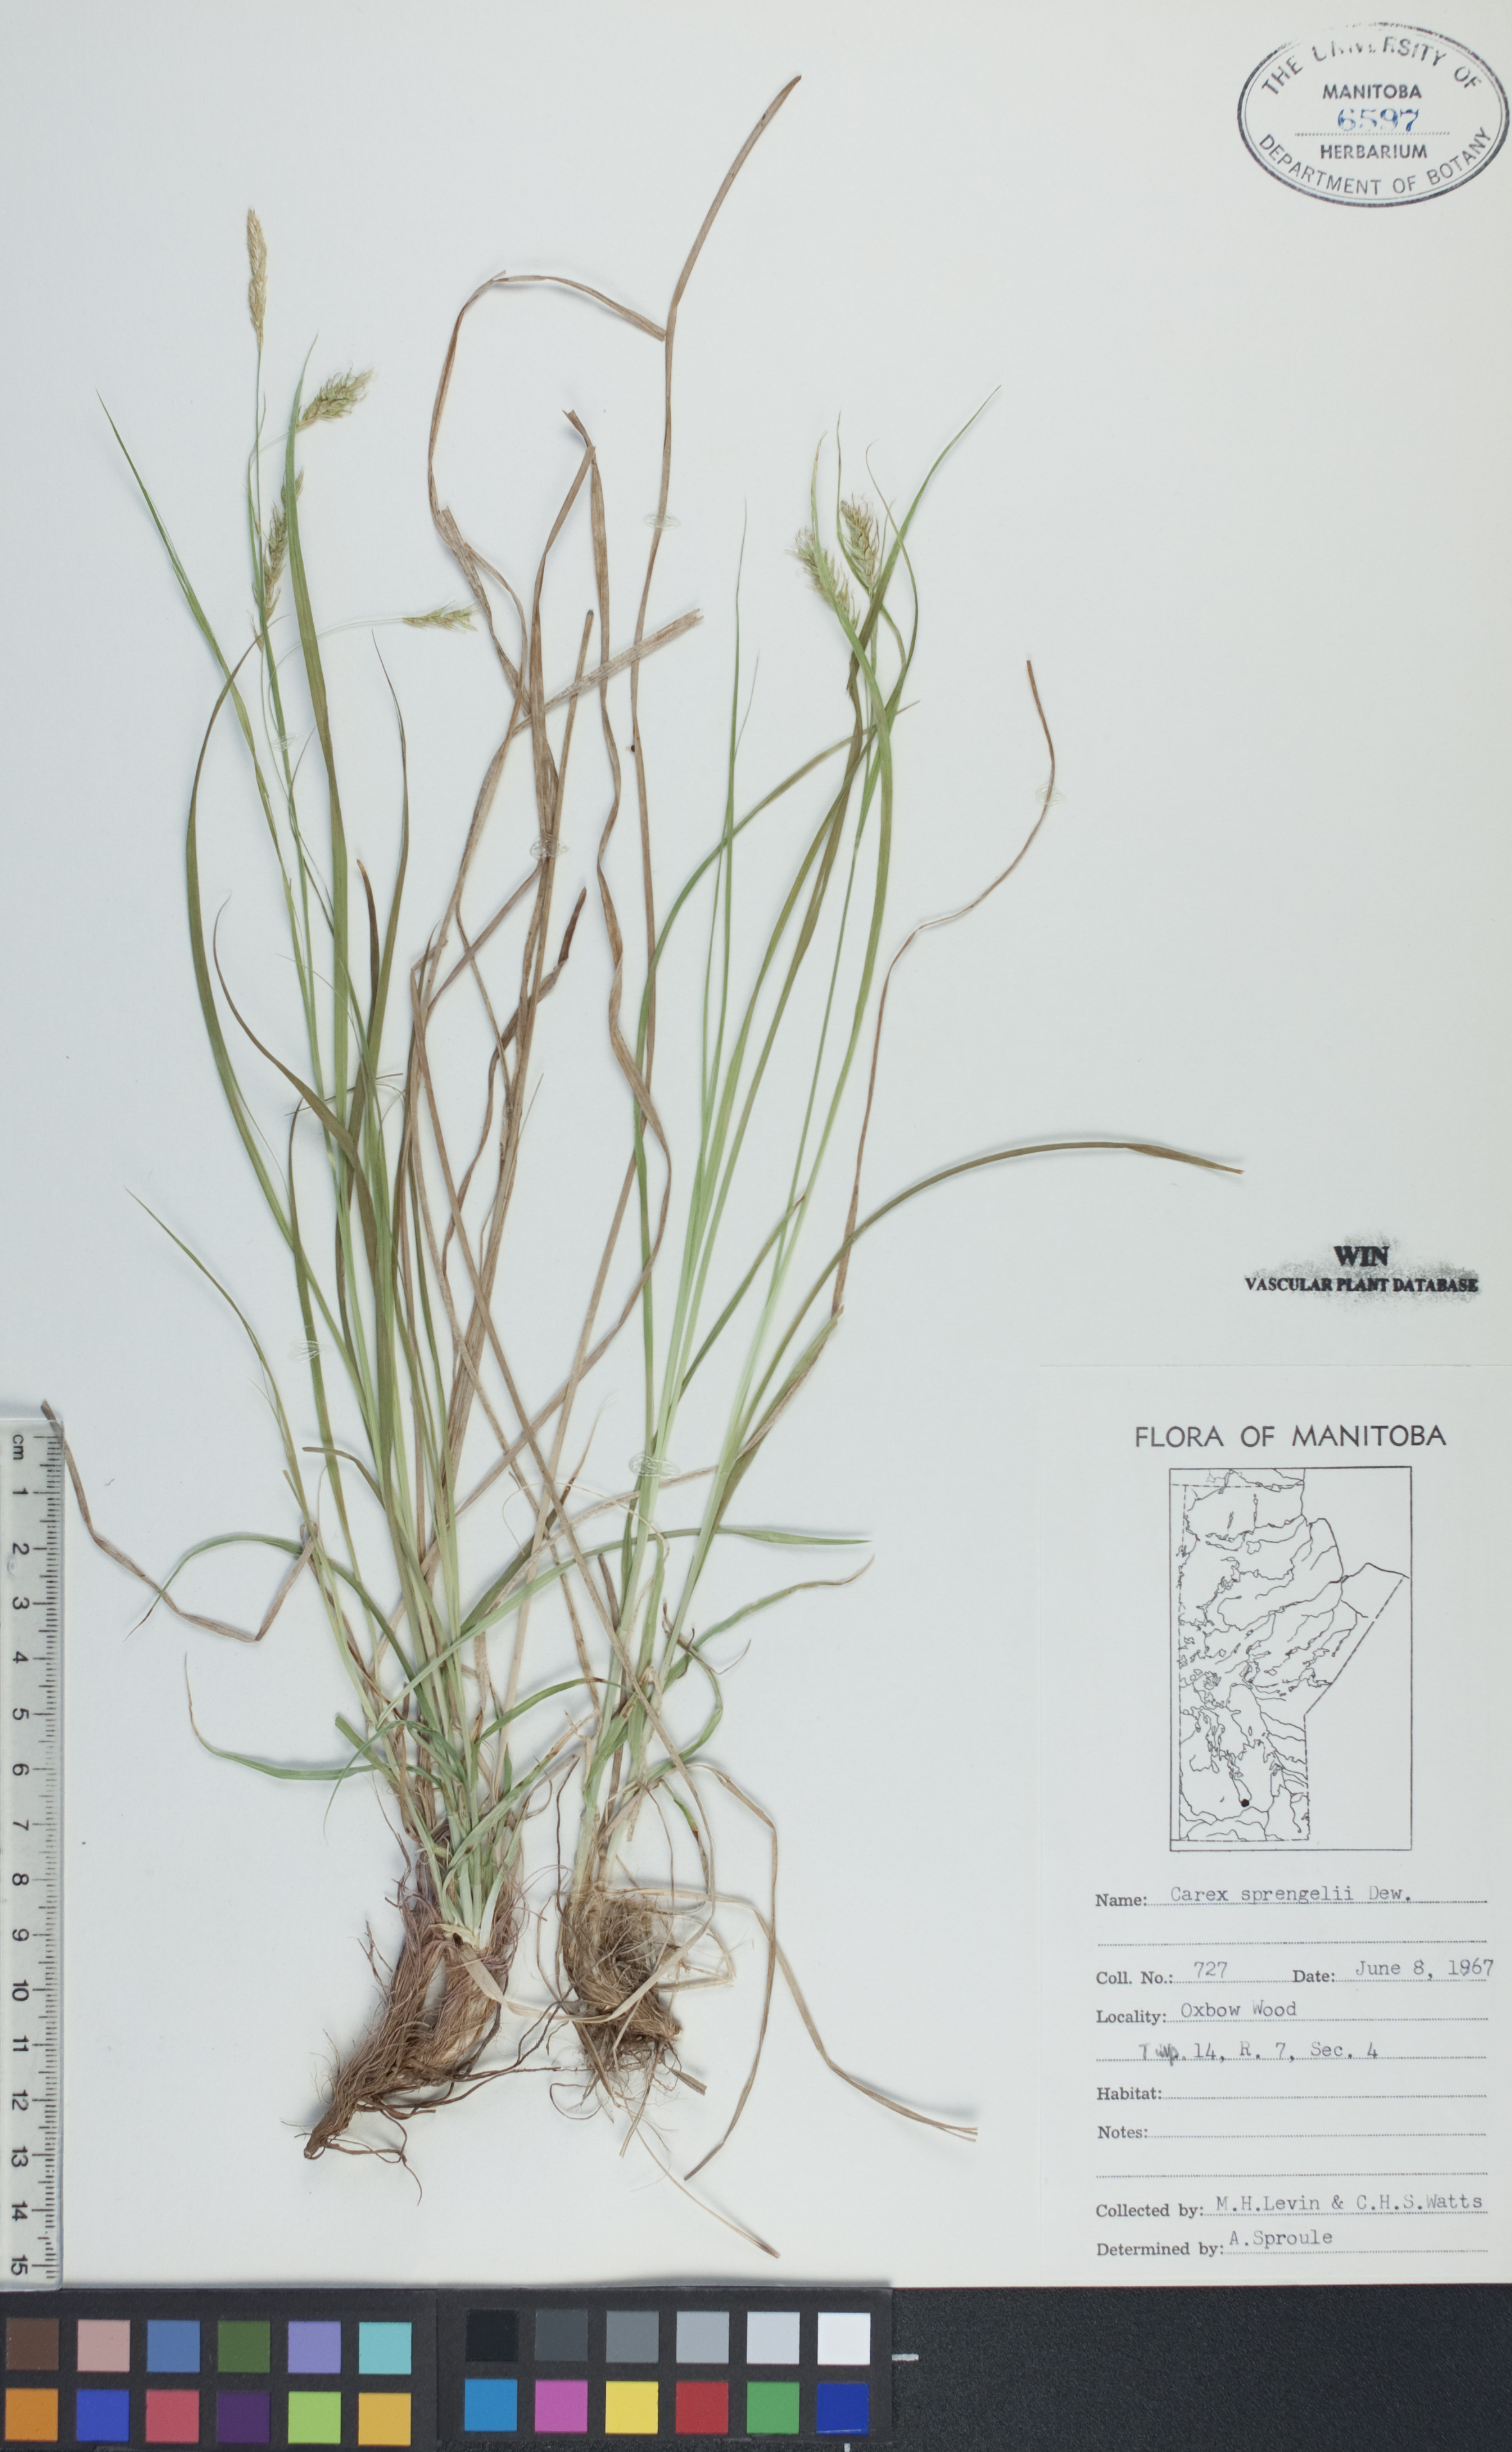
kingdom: Plantae
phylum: Tracheophyta
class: Liliopsida
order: Poales
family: Cyperaceae
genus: Carex
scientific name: Carex sprengelii
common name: Long-beaked sedge
